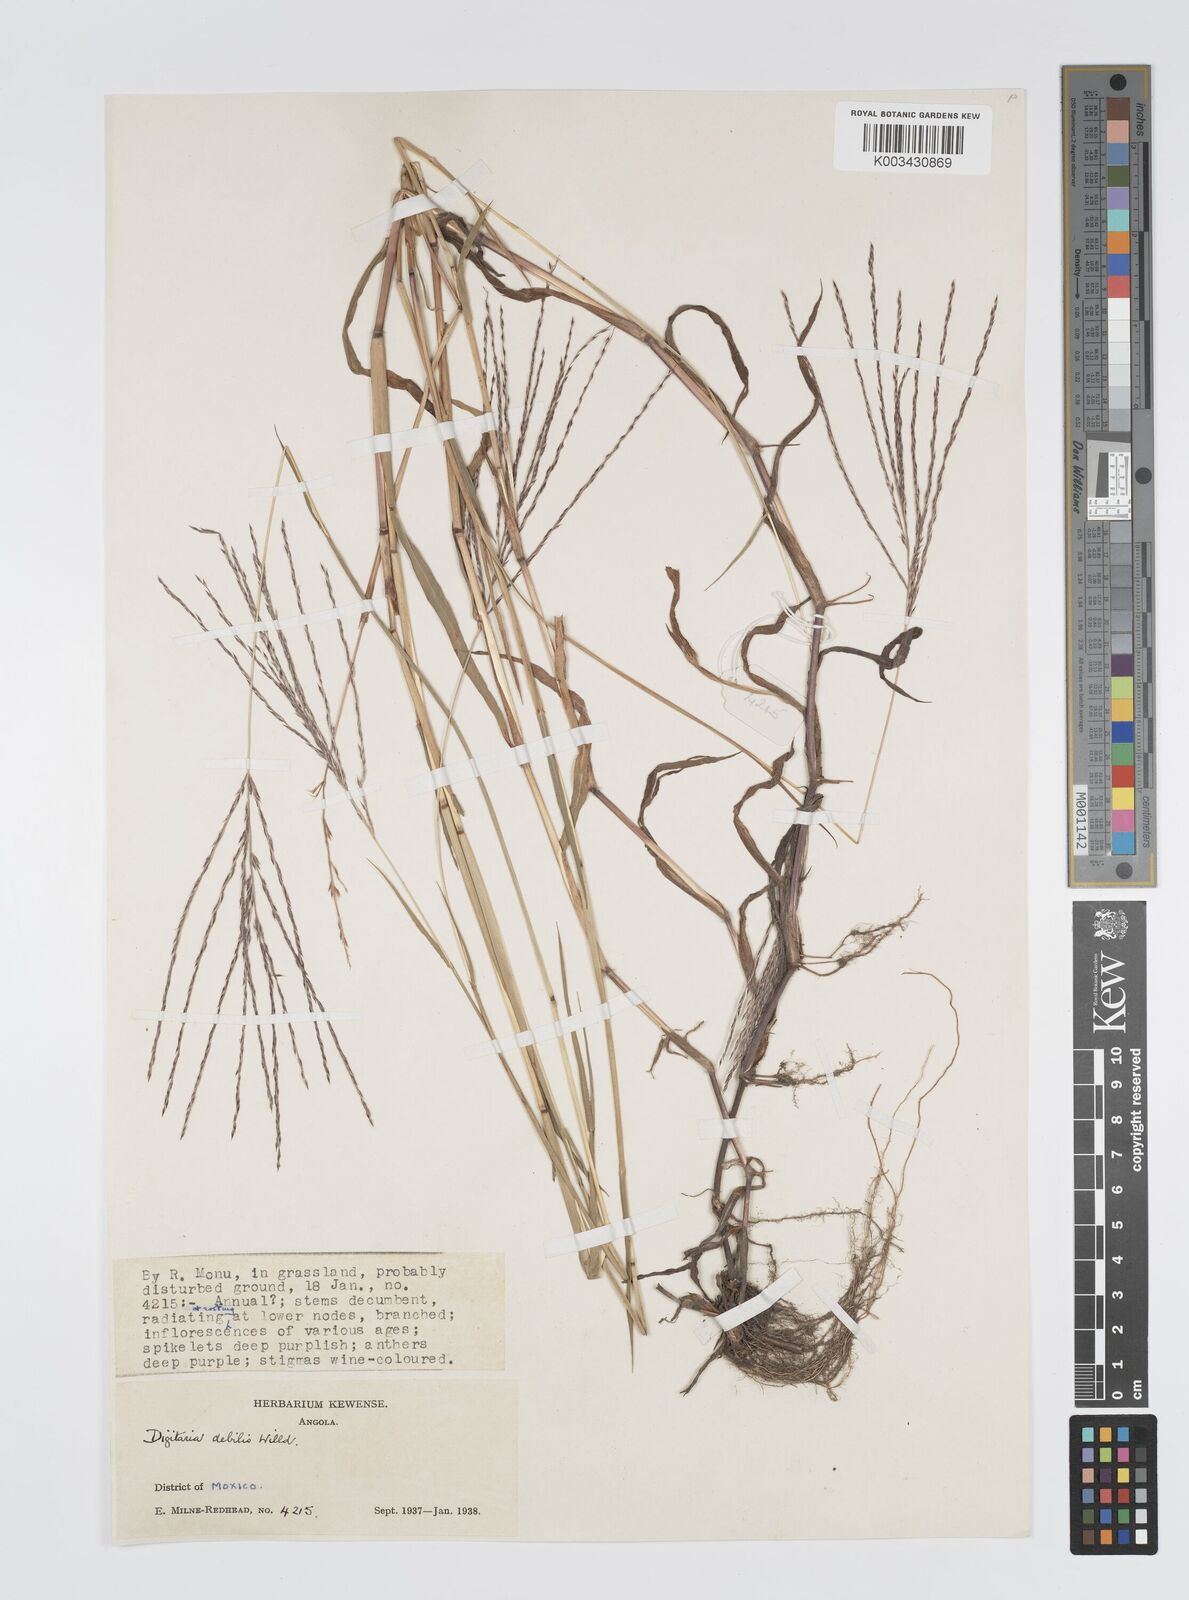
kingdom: Plantae
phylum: Tracheophyta
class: Liliopsida
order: Poales
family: Poaceae
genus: Digitaria
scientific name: Digitaria debilis
